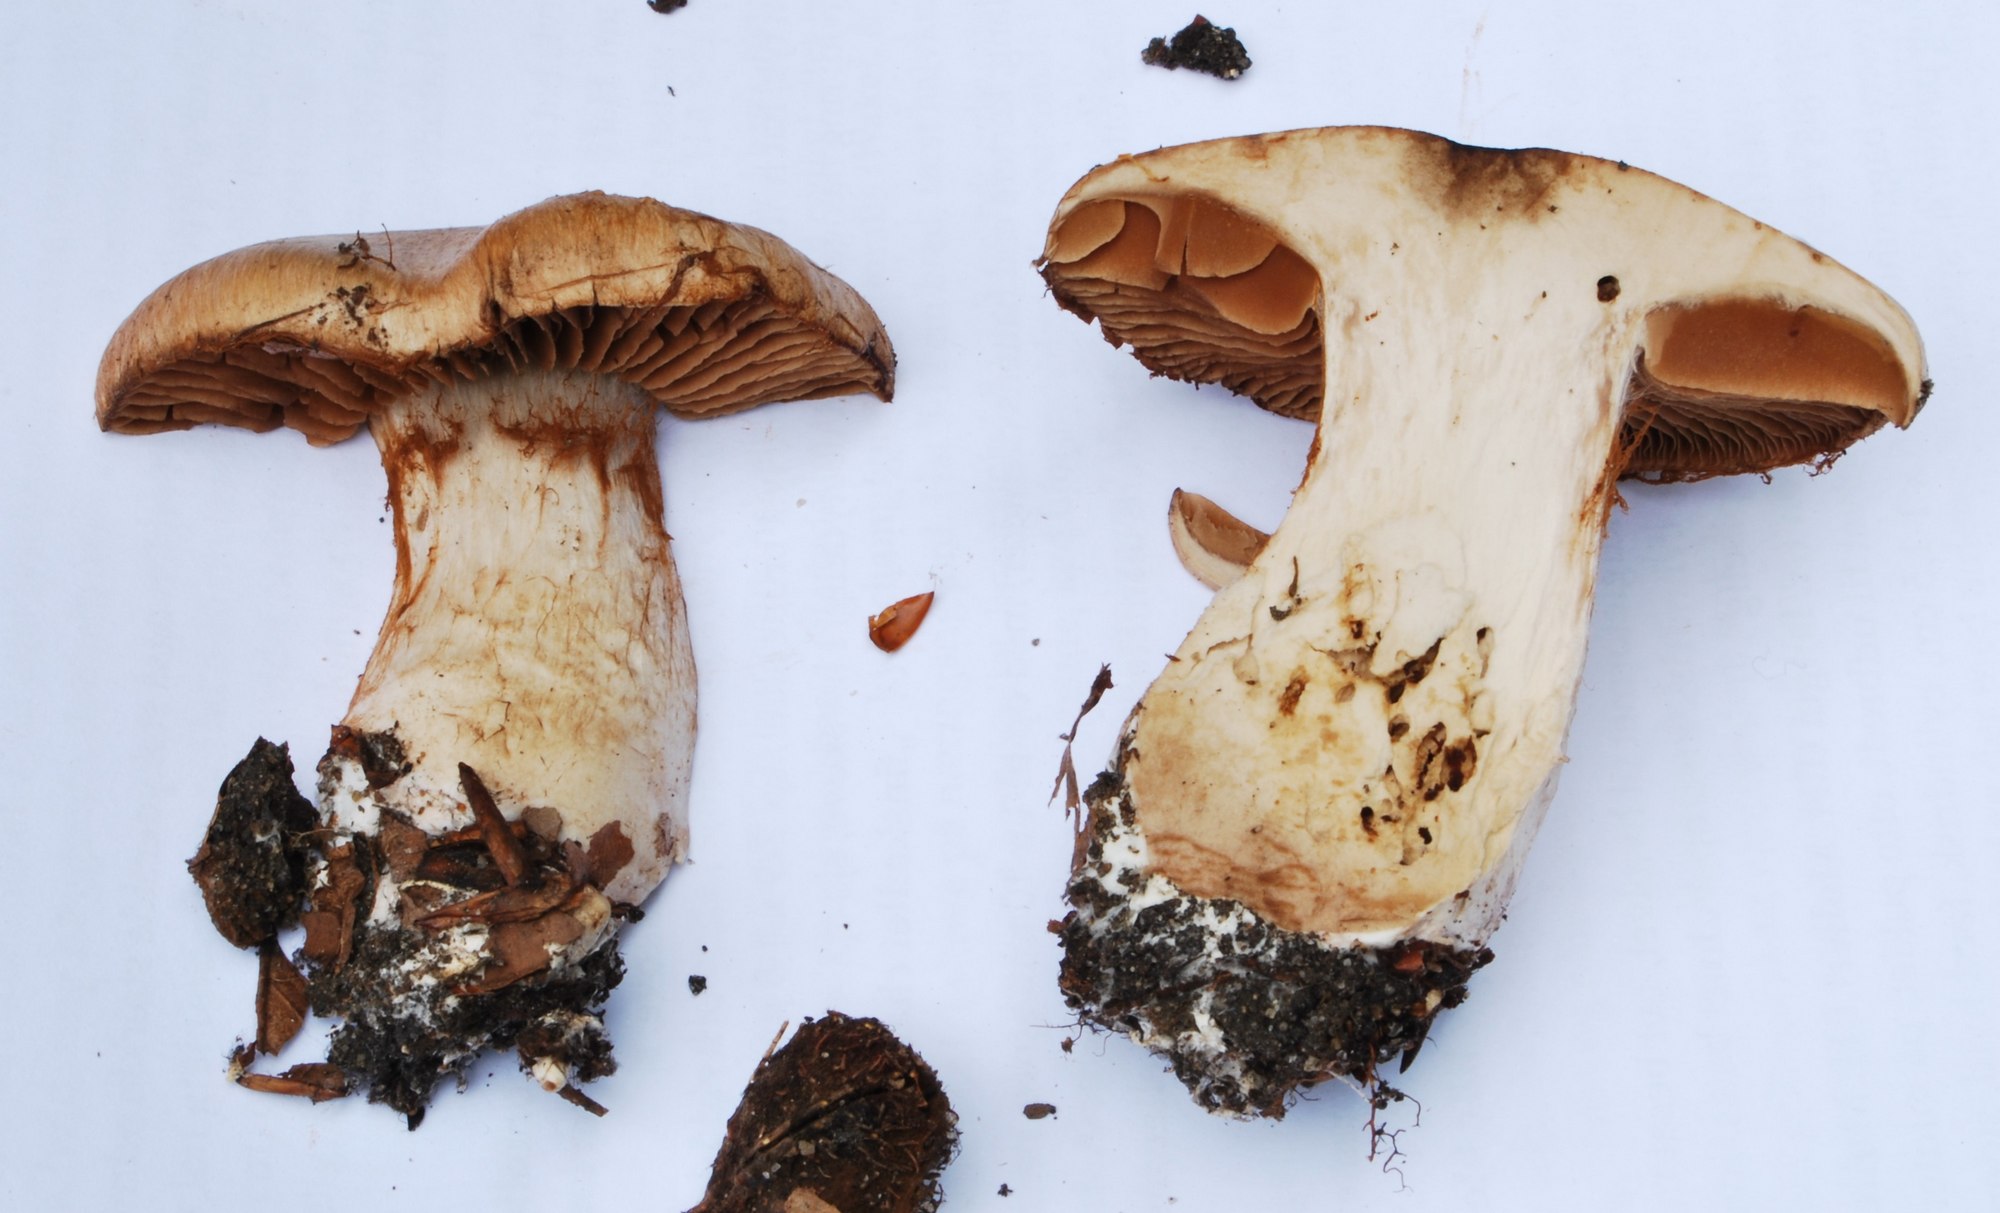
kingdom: Fungi
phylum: Basidiomycota
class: Agaricomycetes
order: Agaricales
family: Cortinariaceae
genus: Phlegmacium
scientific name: Phlegmacium subdecolorans
